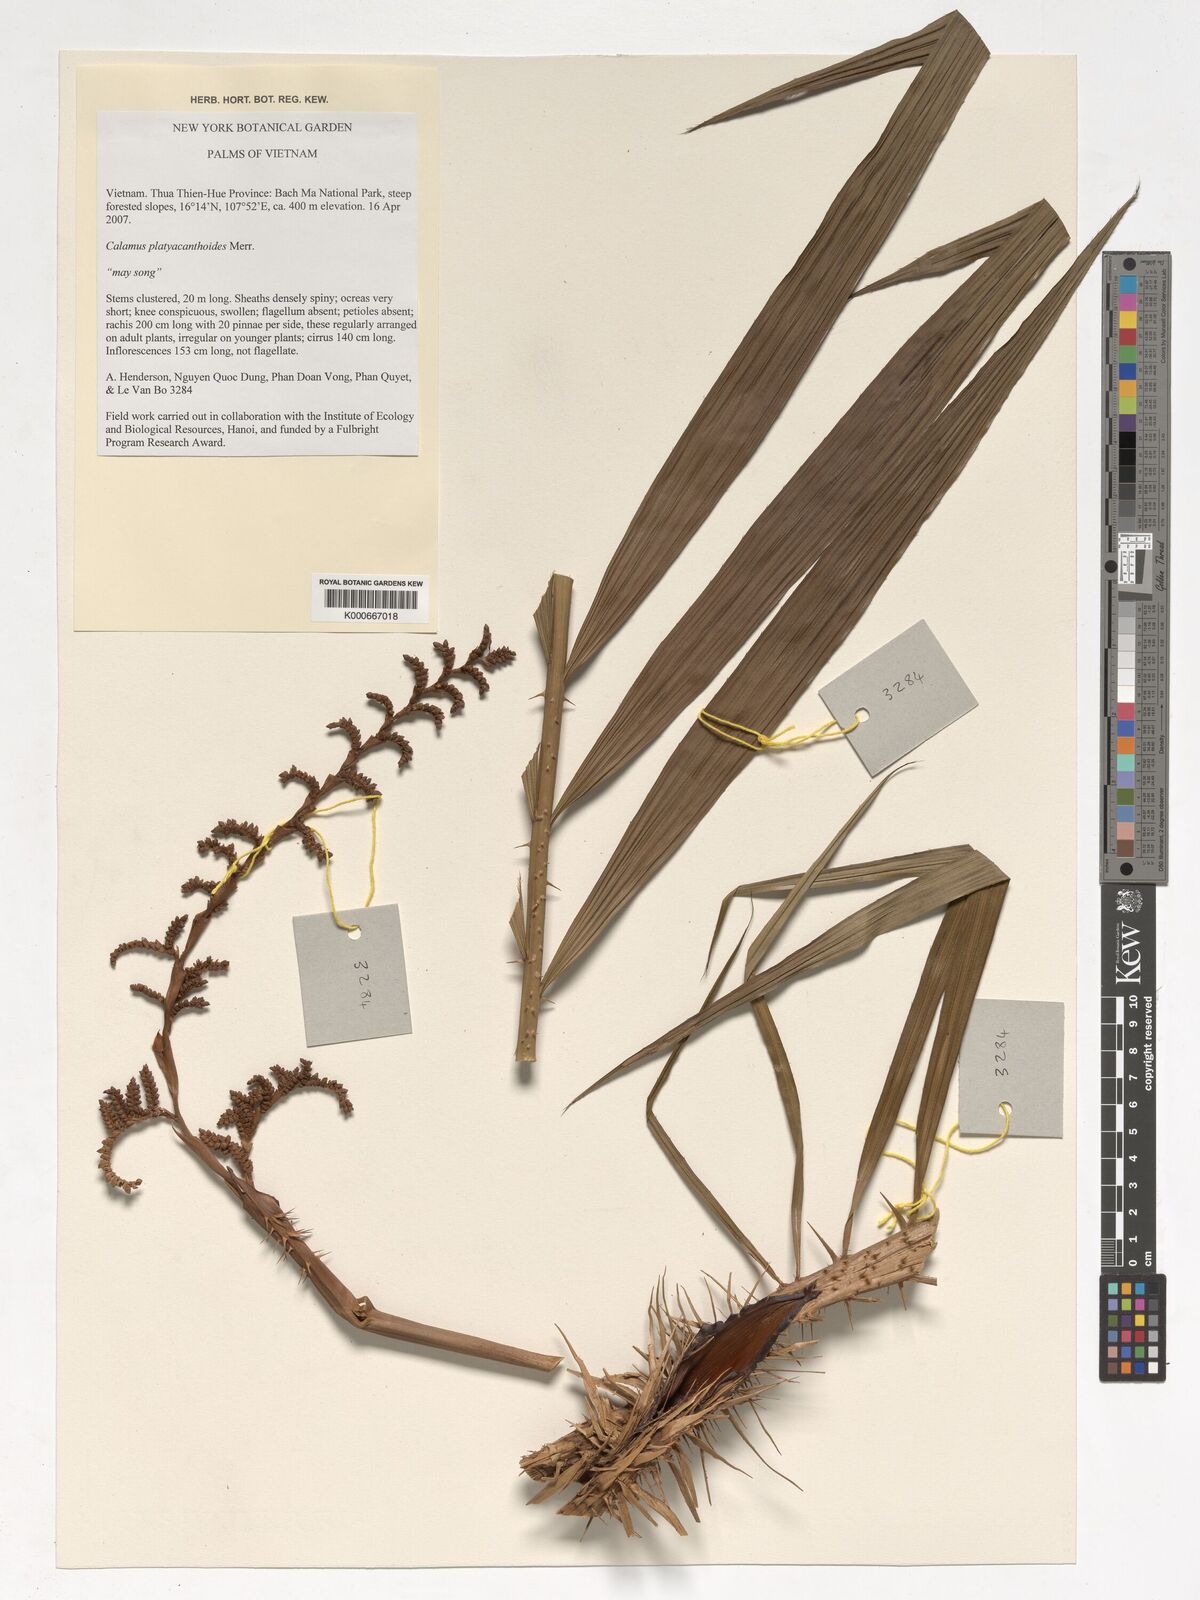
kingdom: Plantae
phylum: Tracheophyta
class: Liliopsida
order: Arecales
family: Arecaceae
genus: Calamus
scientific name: Calamus inermis
